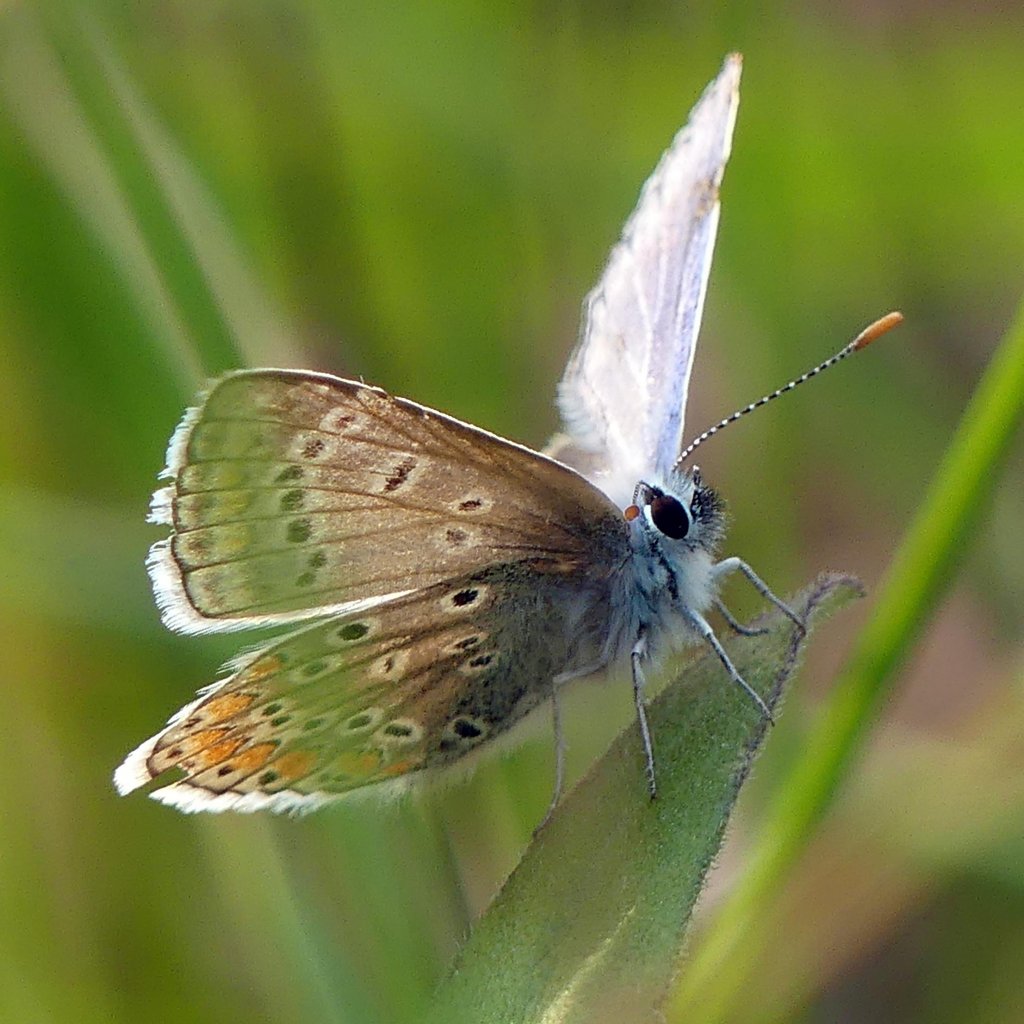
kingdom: Animalia
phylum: Arthropoda
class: Insecta
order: Lepidoptera
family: Lycaenidae
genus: Polyommatus
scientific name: Polyommatus icarus
